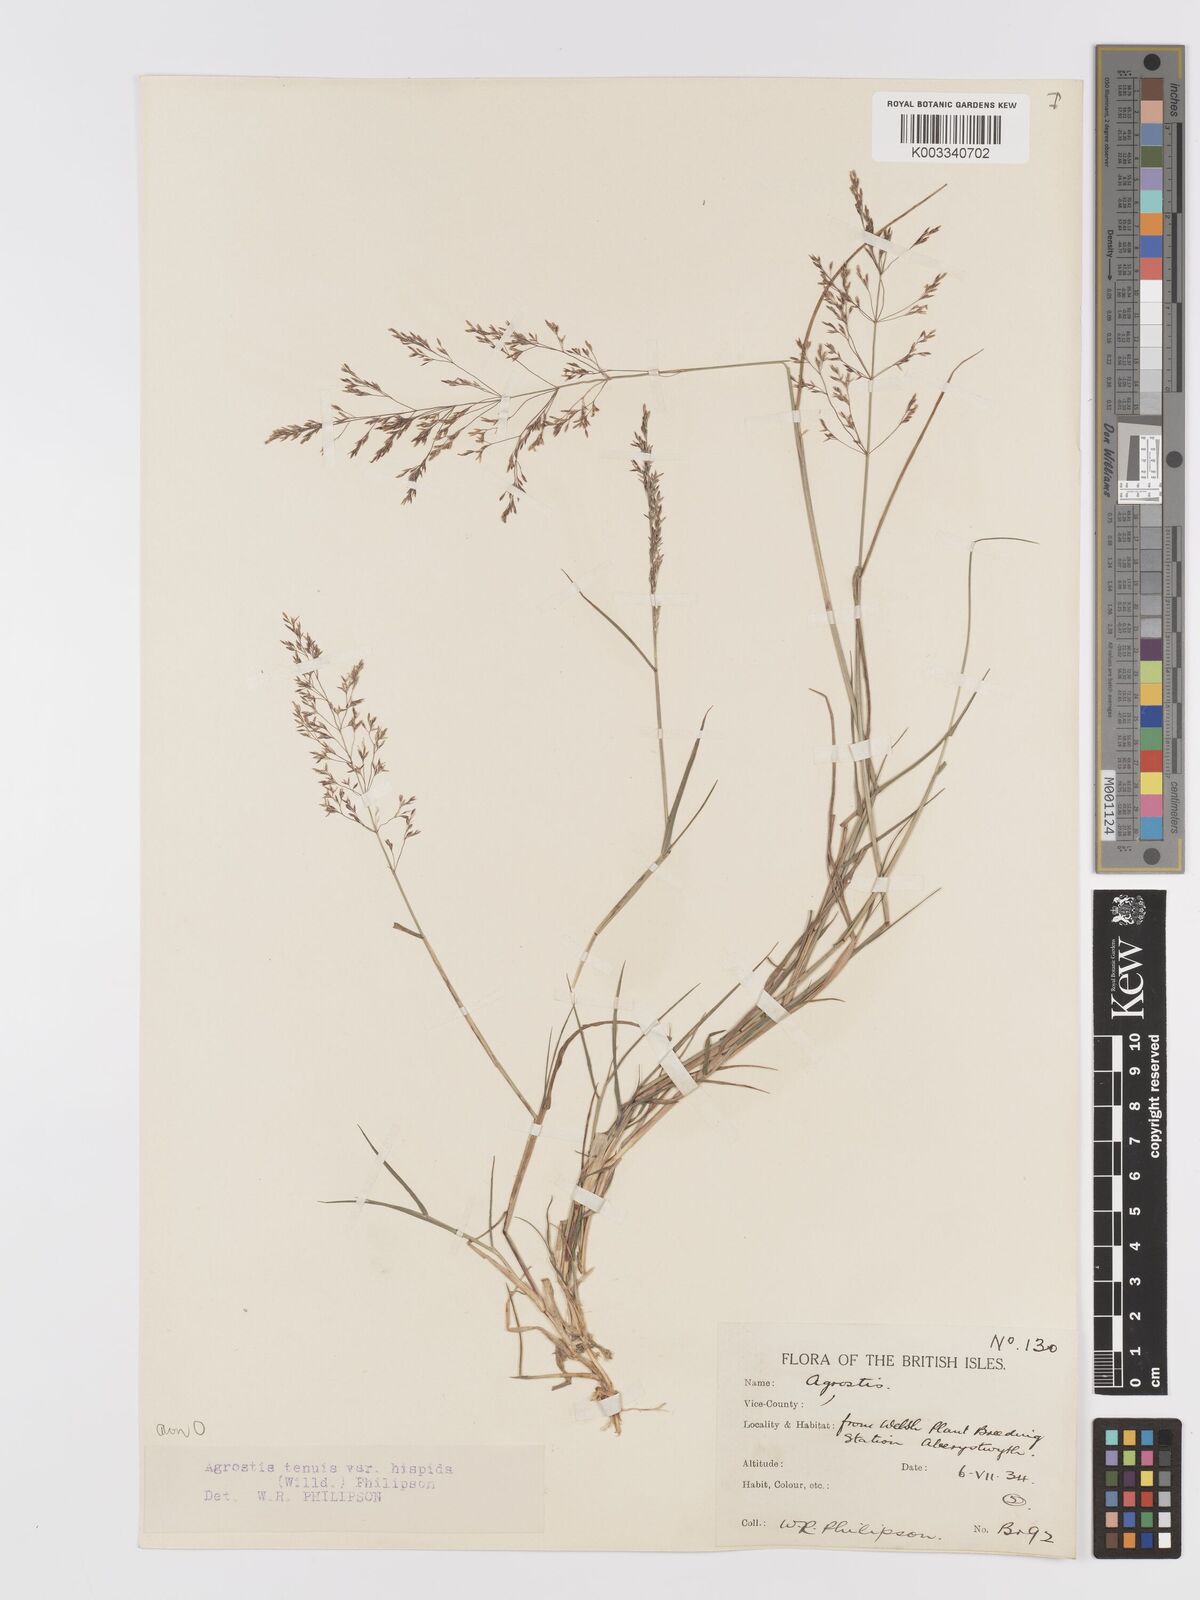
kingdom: Plantae
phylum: Tracheophyta
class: Liliopsida
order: Poales
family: Poaceae
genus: Agrostis
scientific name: Agrostis capillaris
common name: Colonial bentgrass
